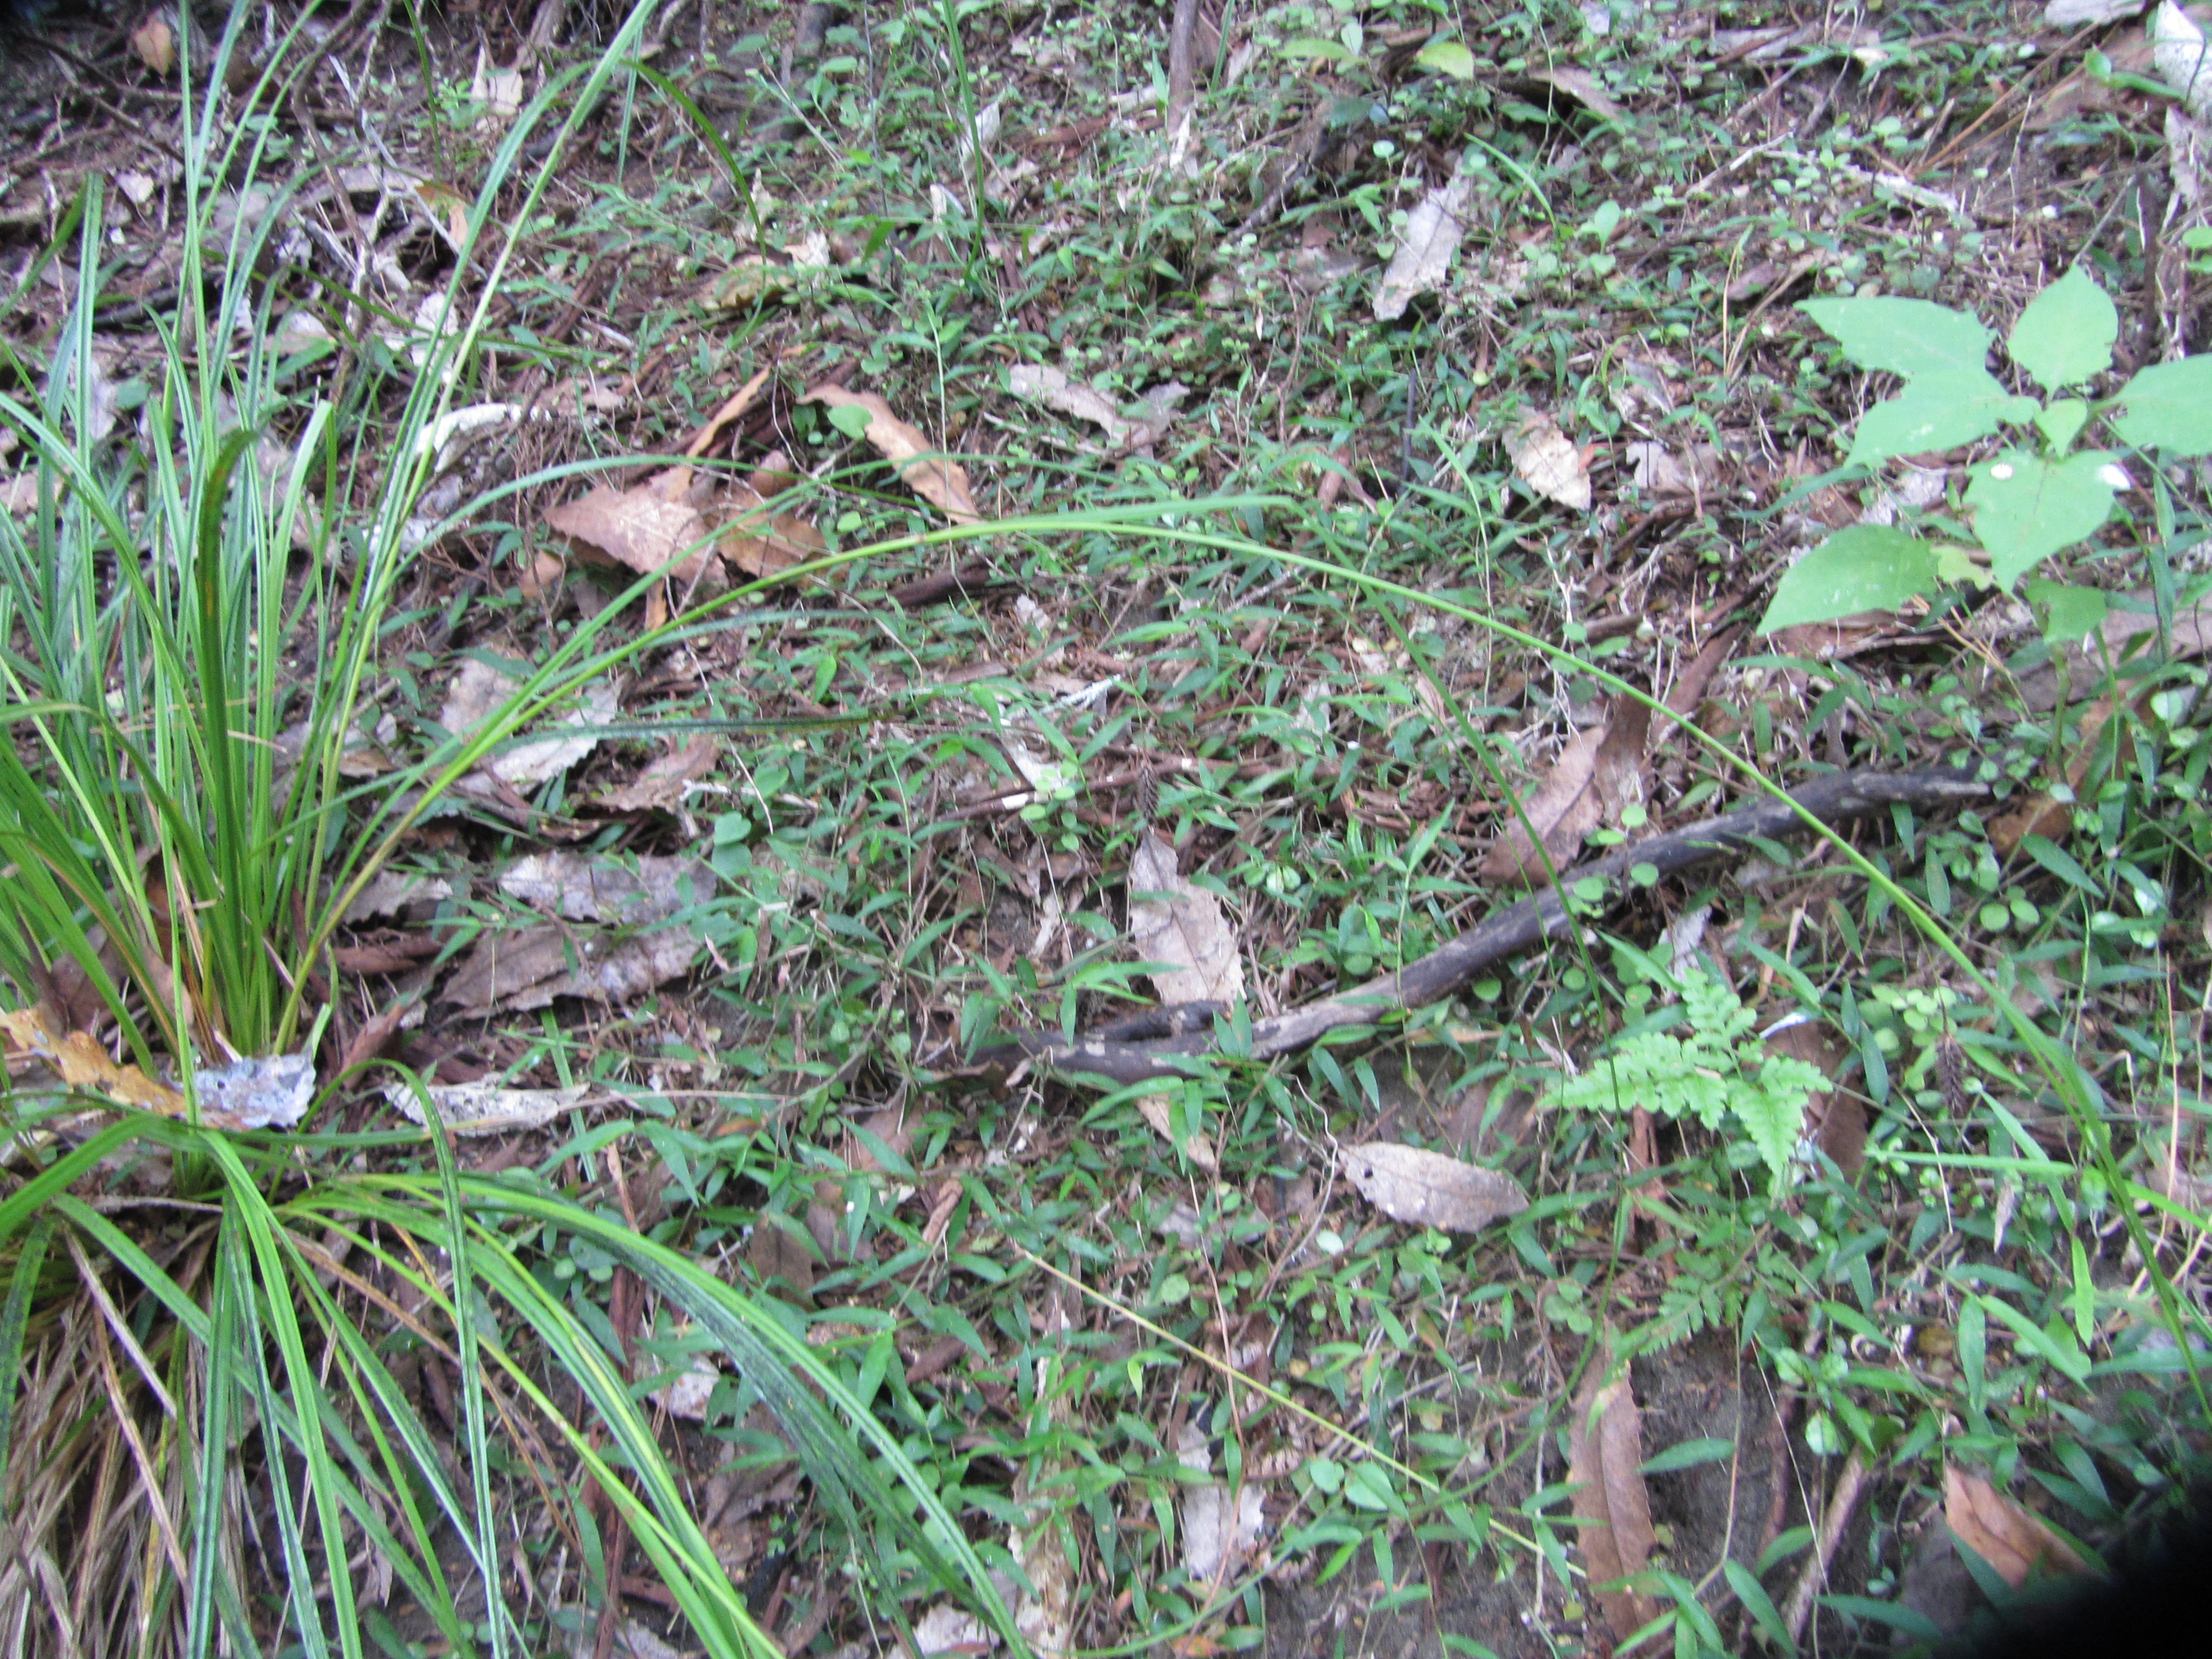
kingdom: Plantae
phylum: Tracheophyta
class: Liliopsida
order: Poales
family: Cyperaceae
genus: Carex
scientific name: Carex solandri
